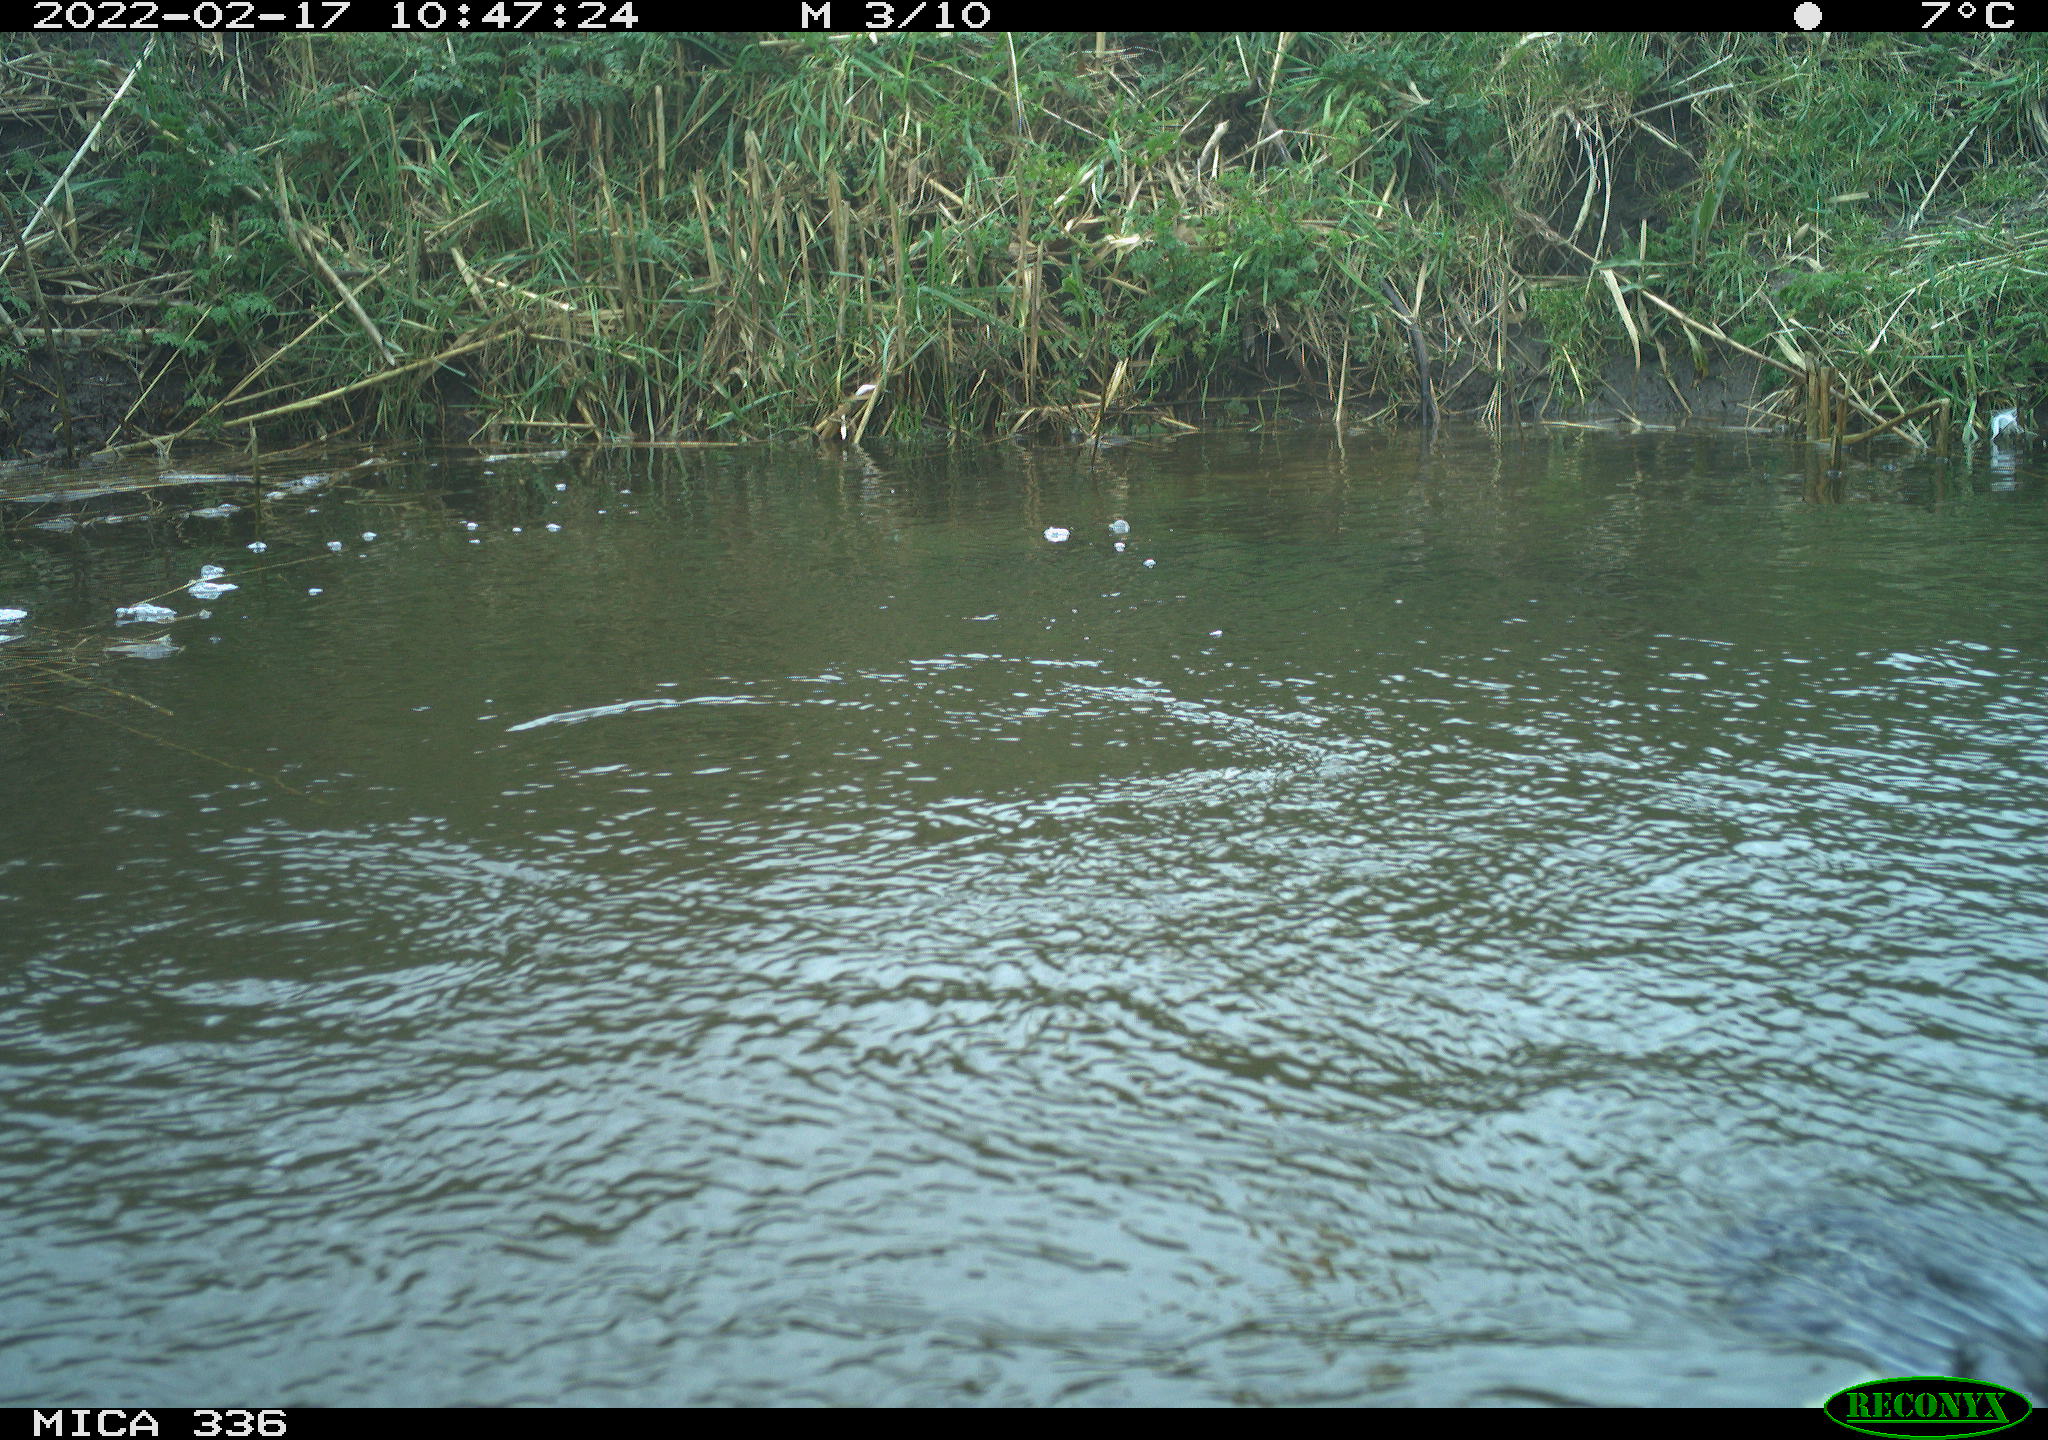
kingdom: Animalia
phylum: Chordata
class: Aves
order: Suliformes
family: Phalacrocoracidae
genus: Phalacrocorax
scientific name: Phalacrocorax carbo
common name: Great cormorant
